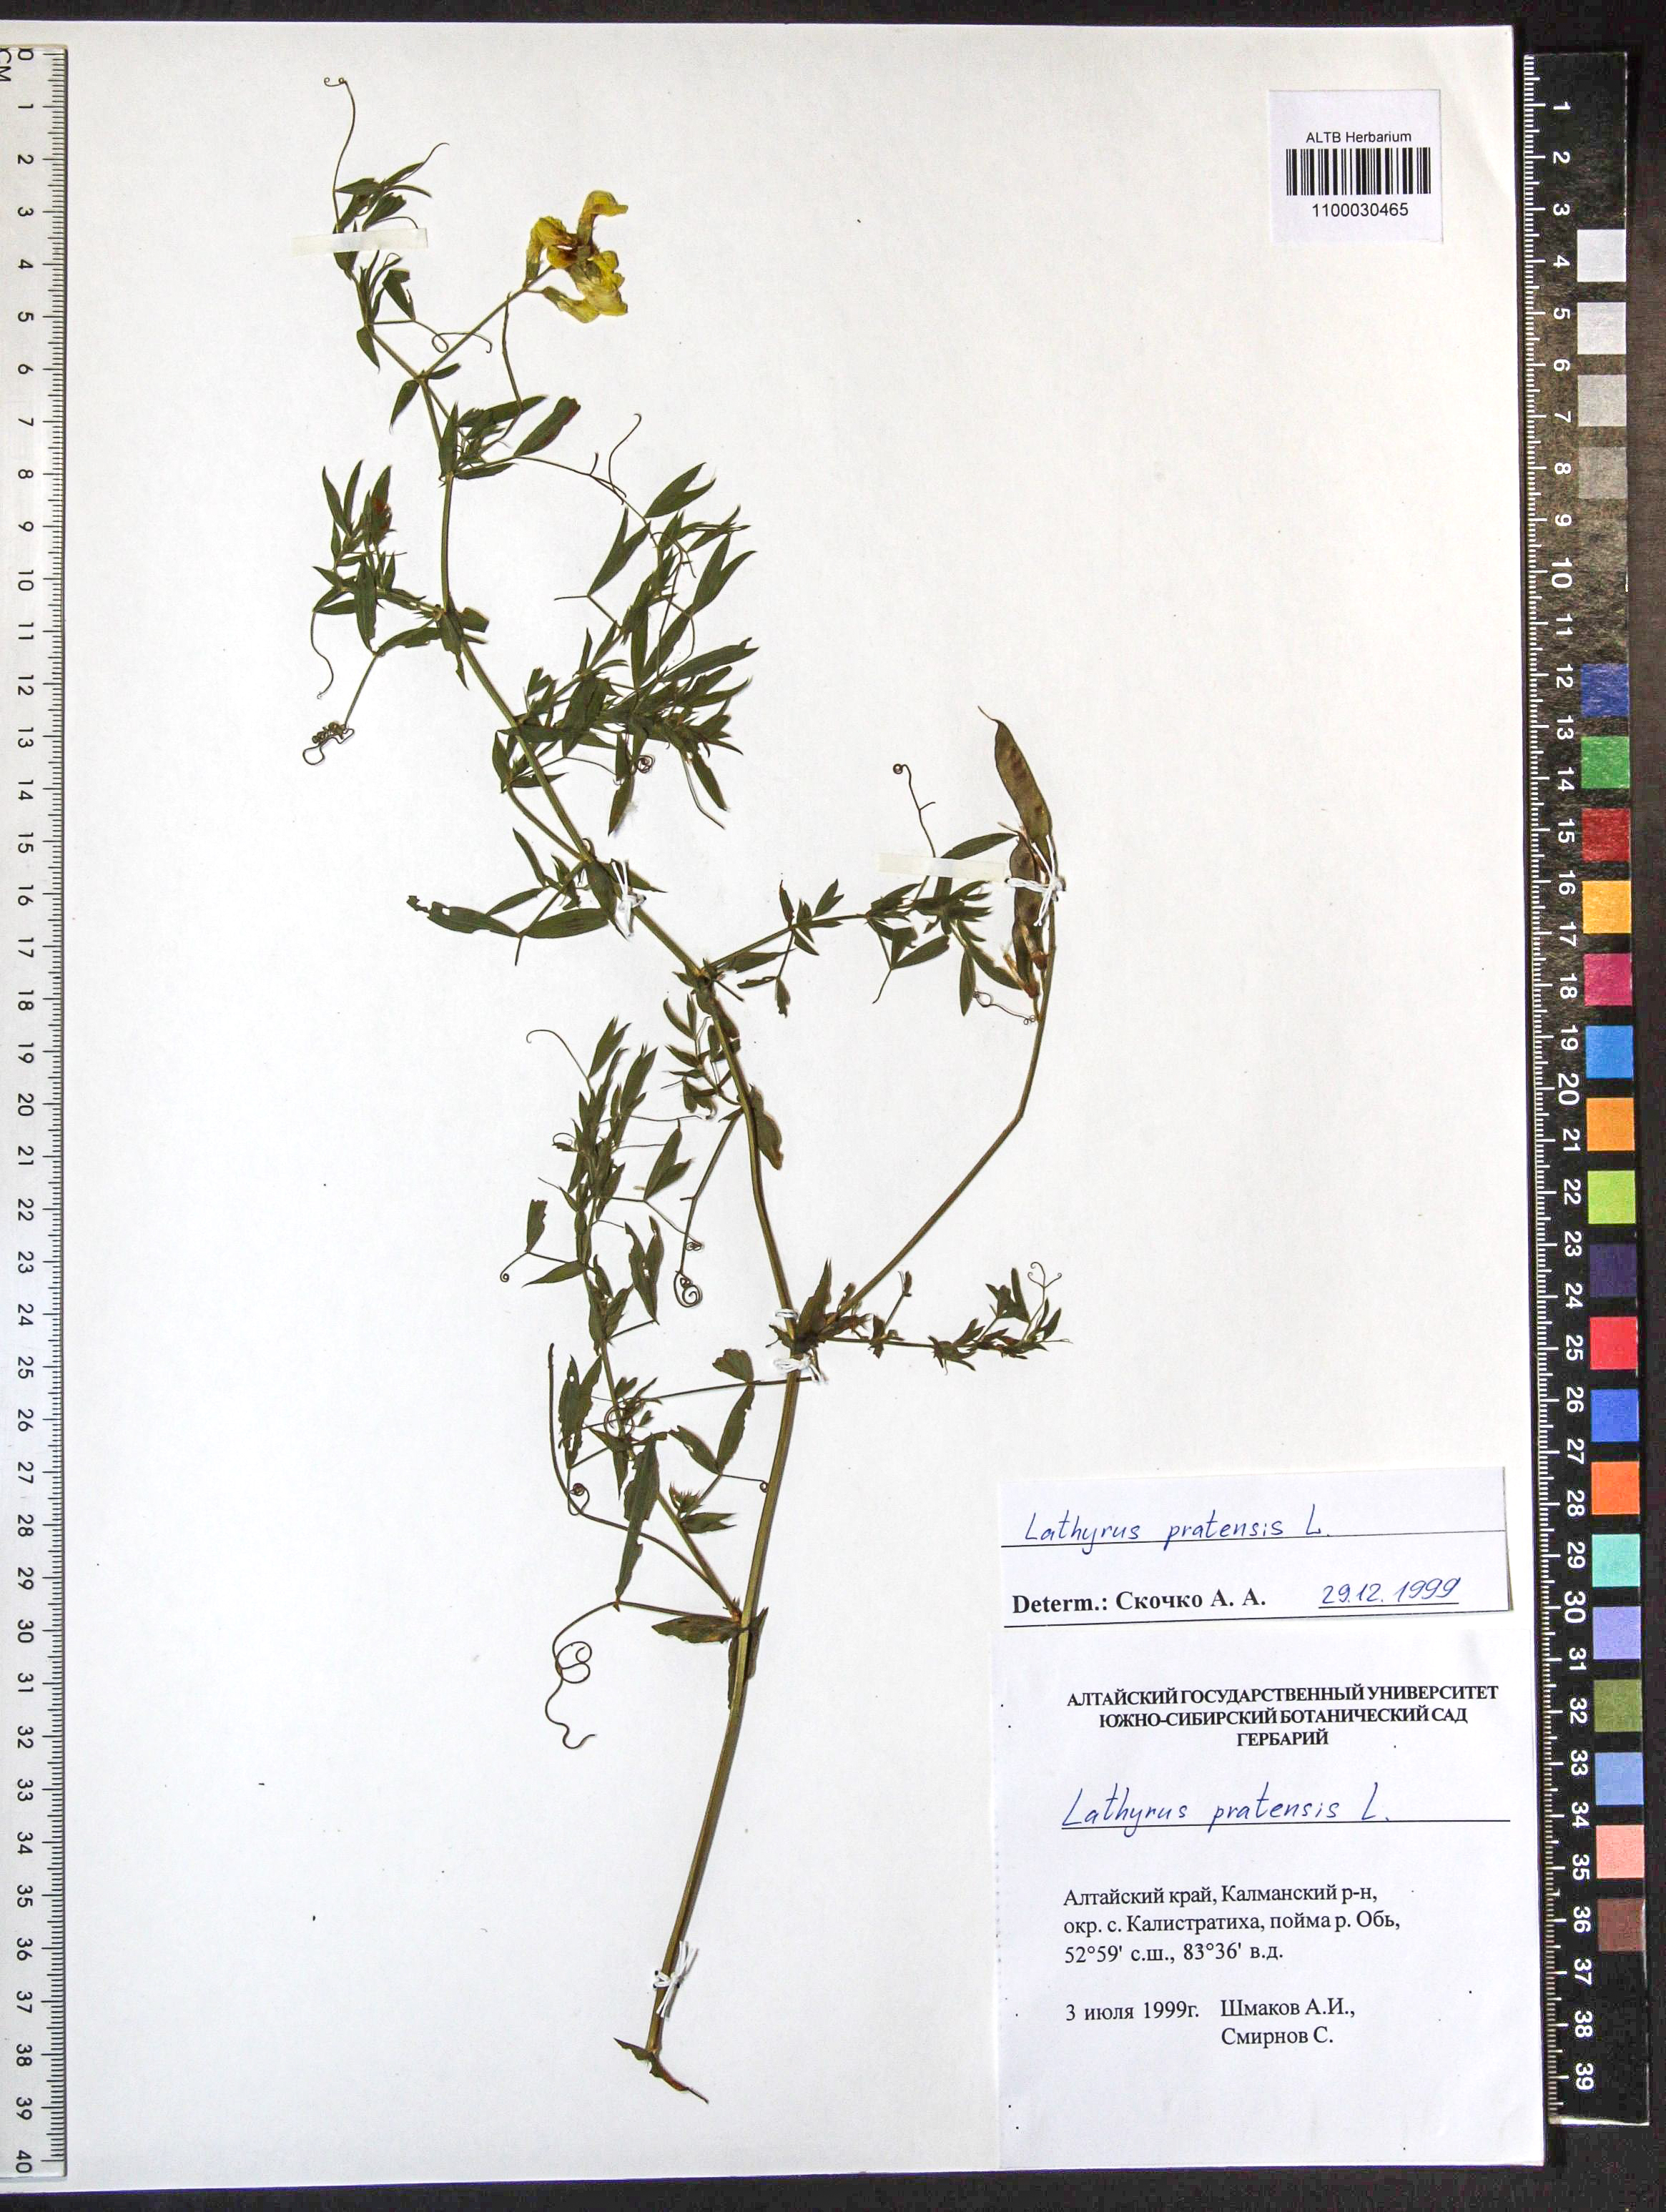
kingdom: Plantae
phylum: Tracheophyta
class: Magnoliopsida
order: Fabales
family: Fabaceae
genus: Lathyrus
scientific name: Lathyrus pratensis
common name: Meadow vetchling
